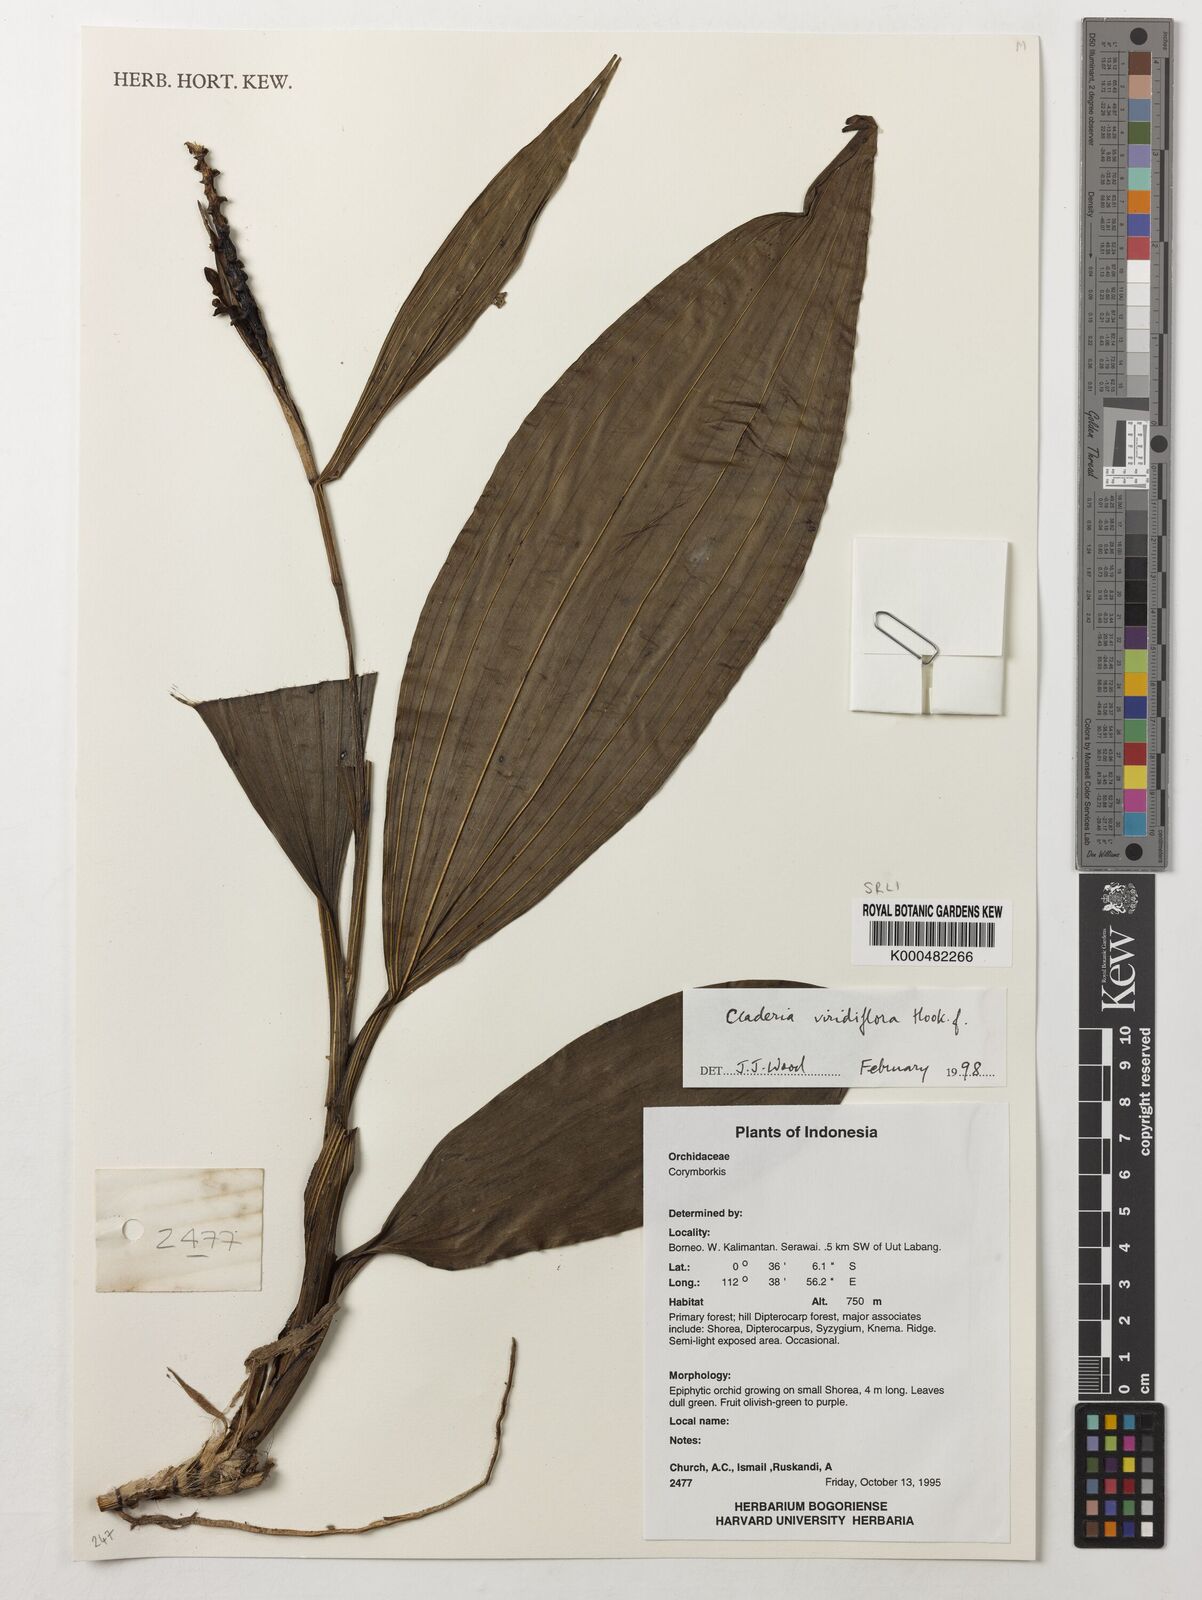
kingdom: Plantae
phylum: Tracheophyta
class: Liliopsida
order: Asparagales
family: Orchidaceae
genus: Claderia
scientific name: Claderia
